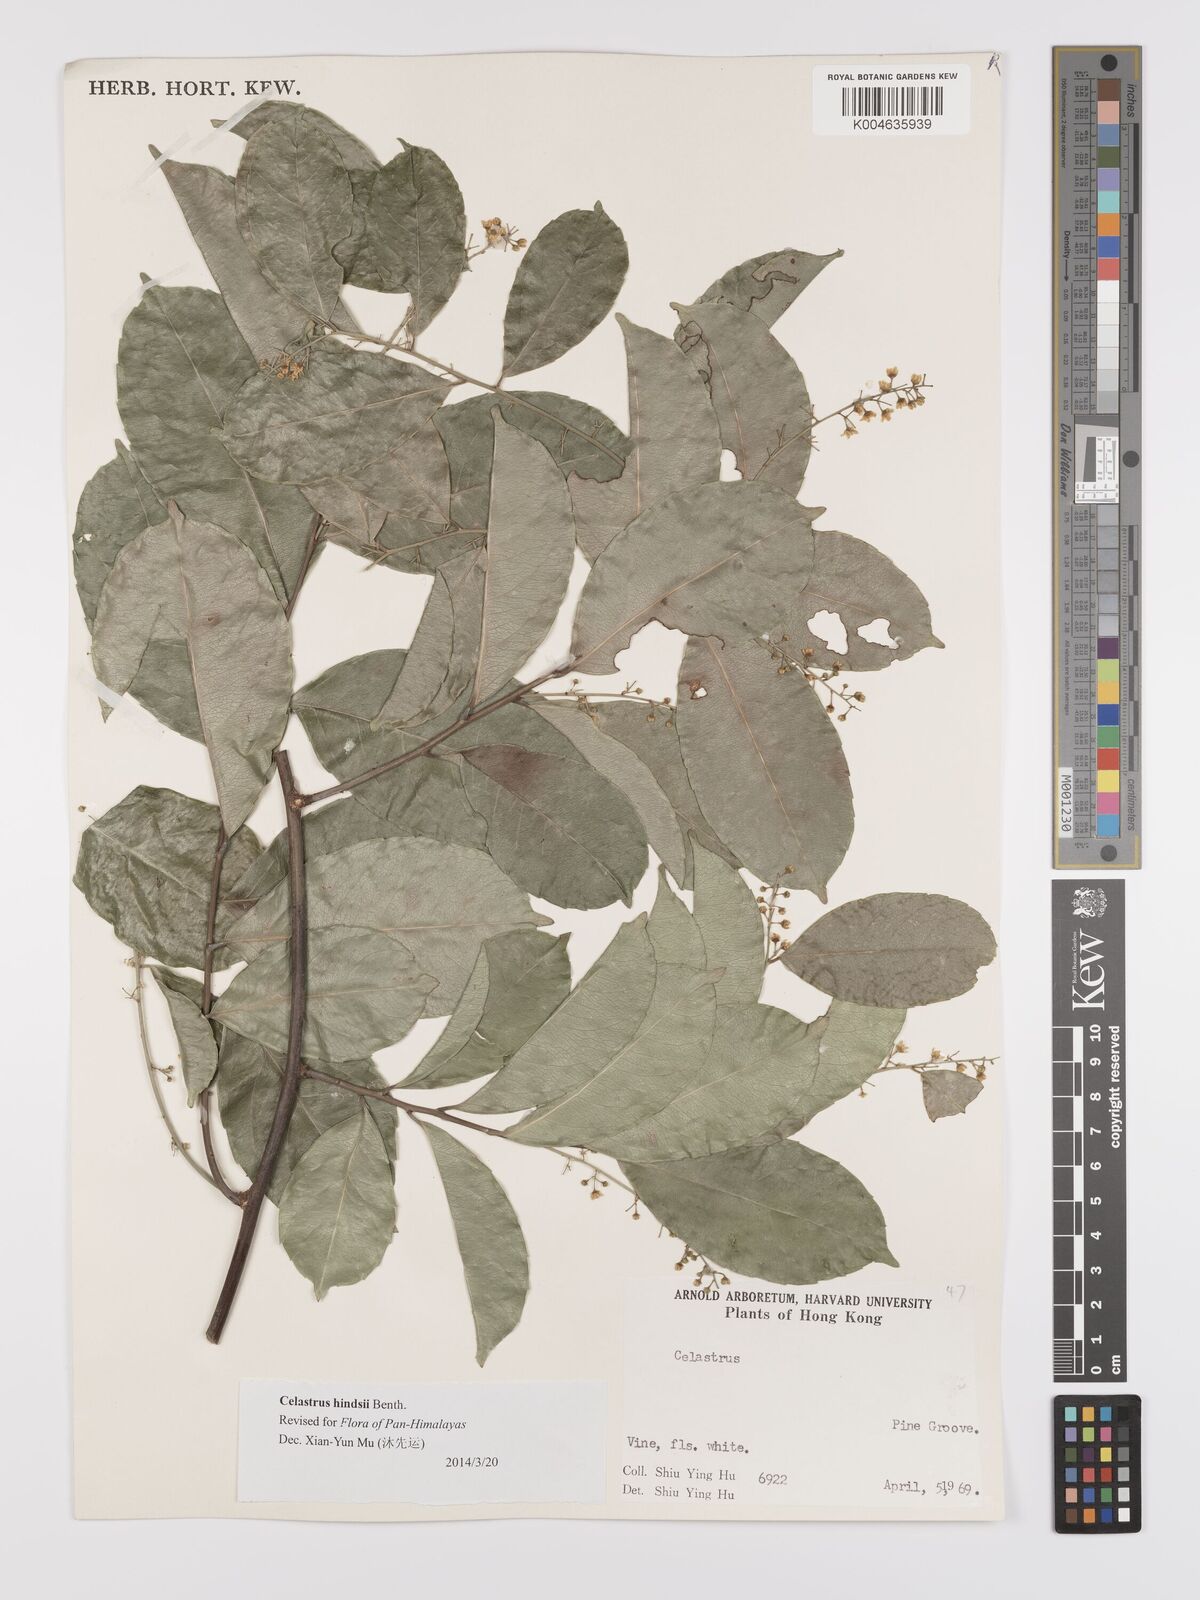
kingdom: Plantae
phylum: Tracheophyta
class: Magnoliopsida
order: Celastrales
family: Celastraceae
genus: Celastrus
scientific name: Celastrus hindsii
